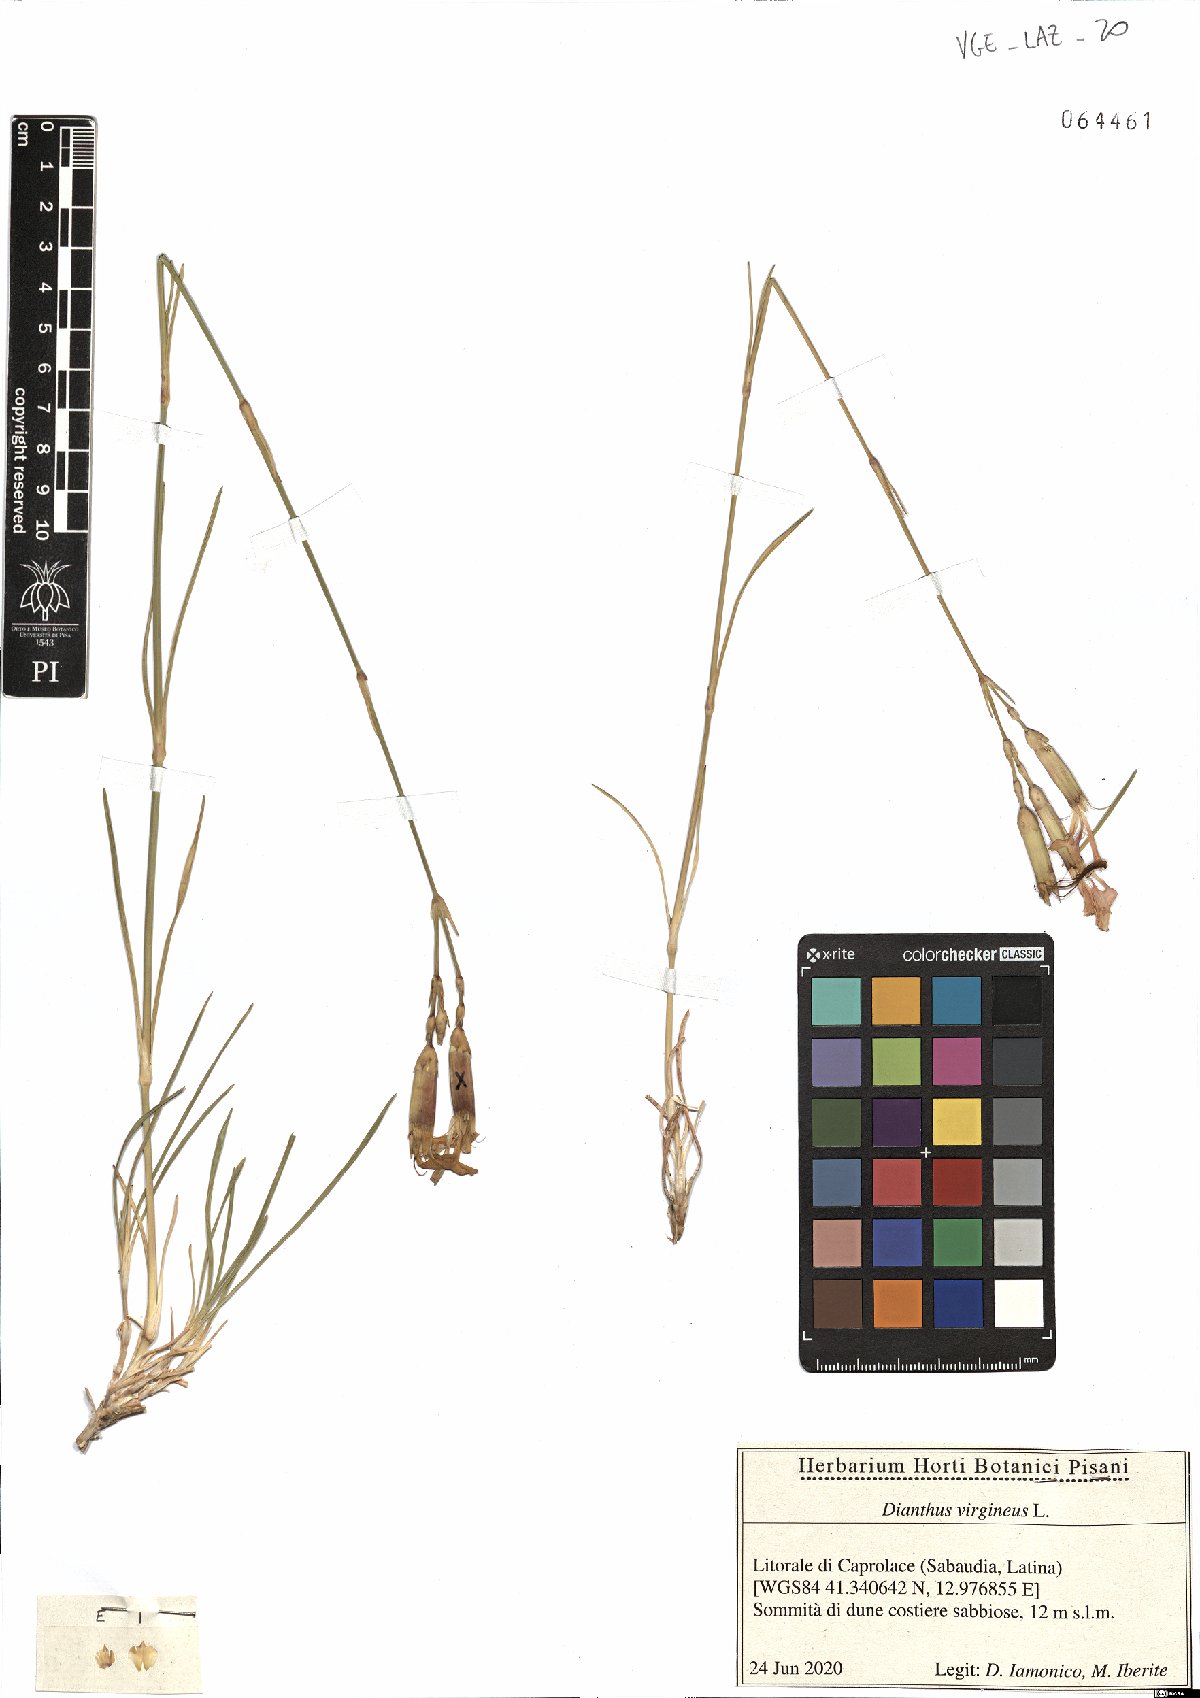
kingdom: Plantae
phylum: Tracheophyta
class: Magnoliopsida
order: Caryophyllales
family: Caryophyllaceae
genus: Dianthus
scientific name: Dianthus virgineus
